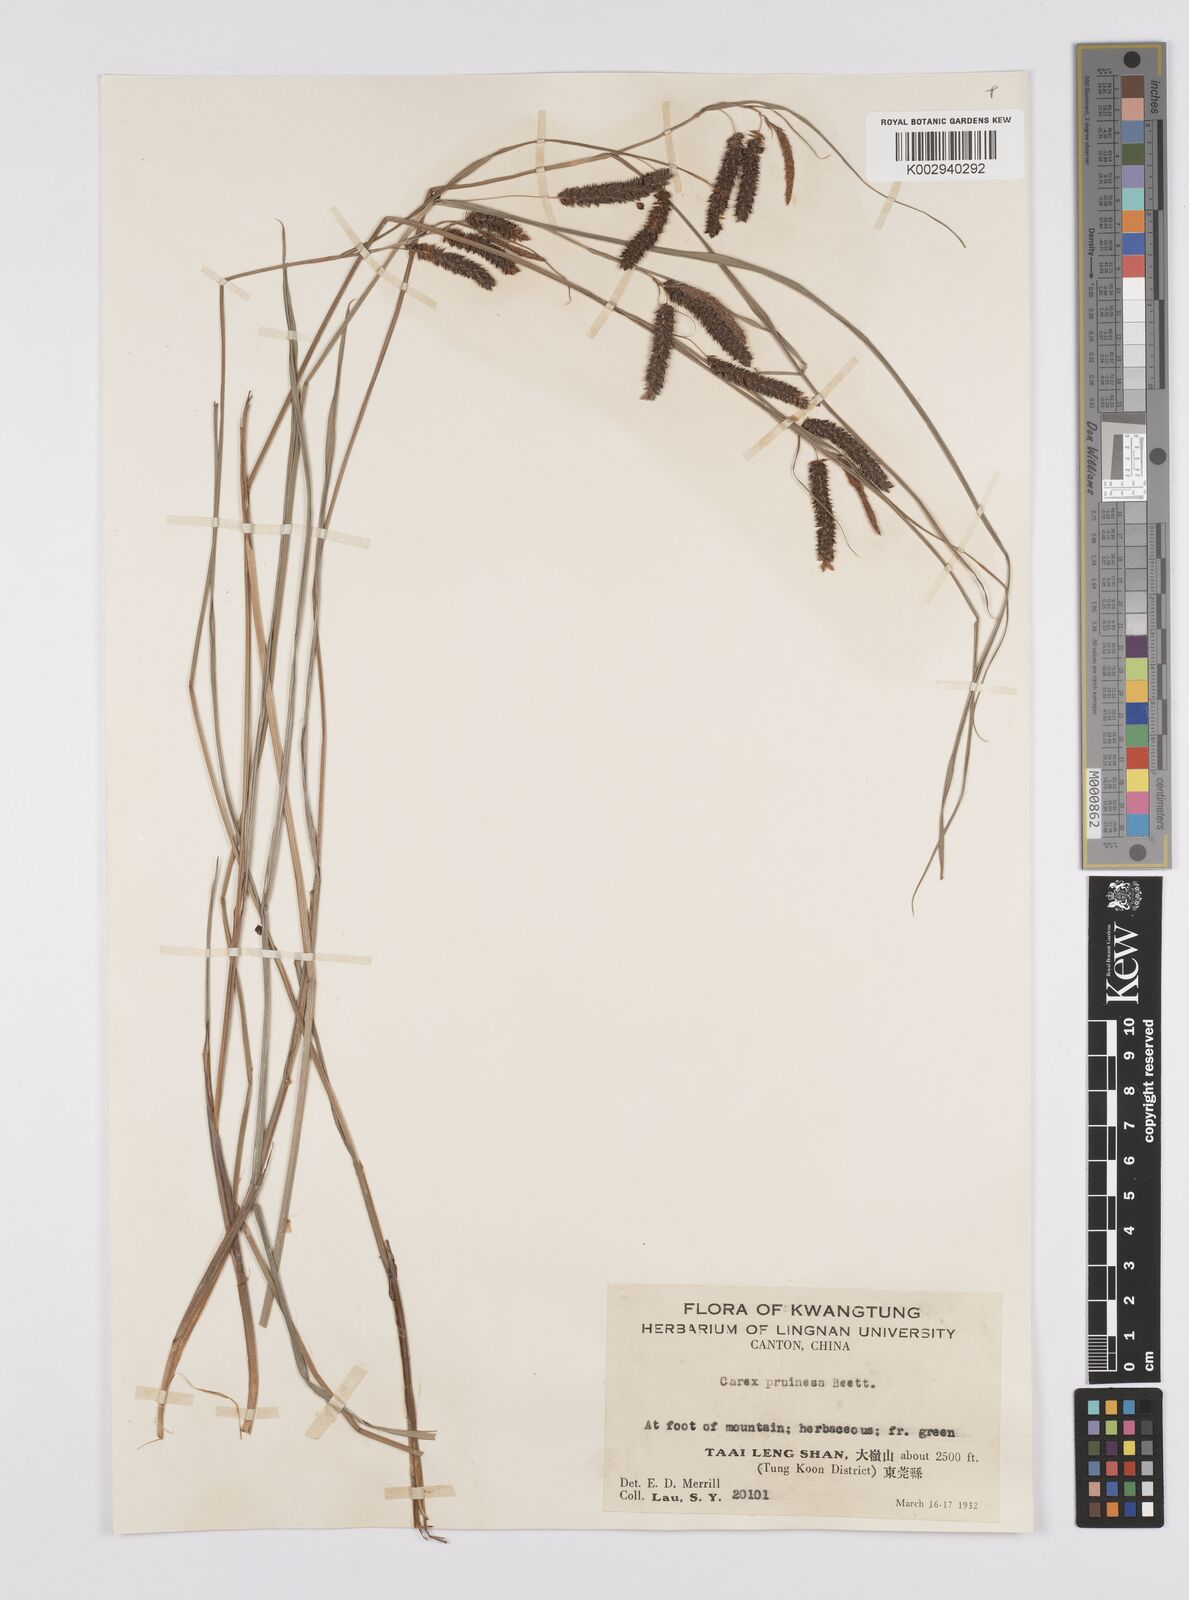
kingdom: Plantae
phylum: Tracheophyta
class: Liliopsida
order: Poales
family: Cyperaceae
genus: Carex
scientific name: Carex phacota
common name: Lakeshore sedge
